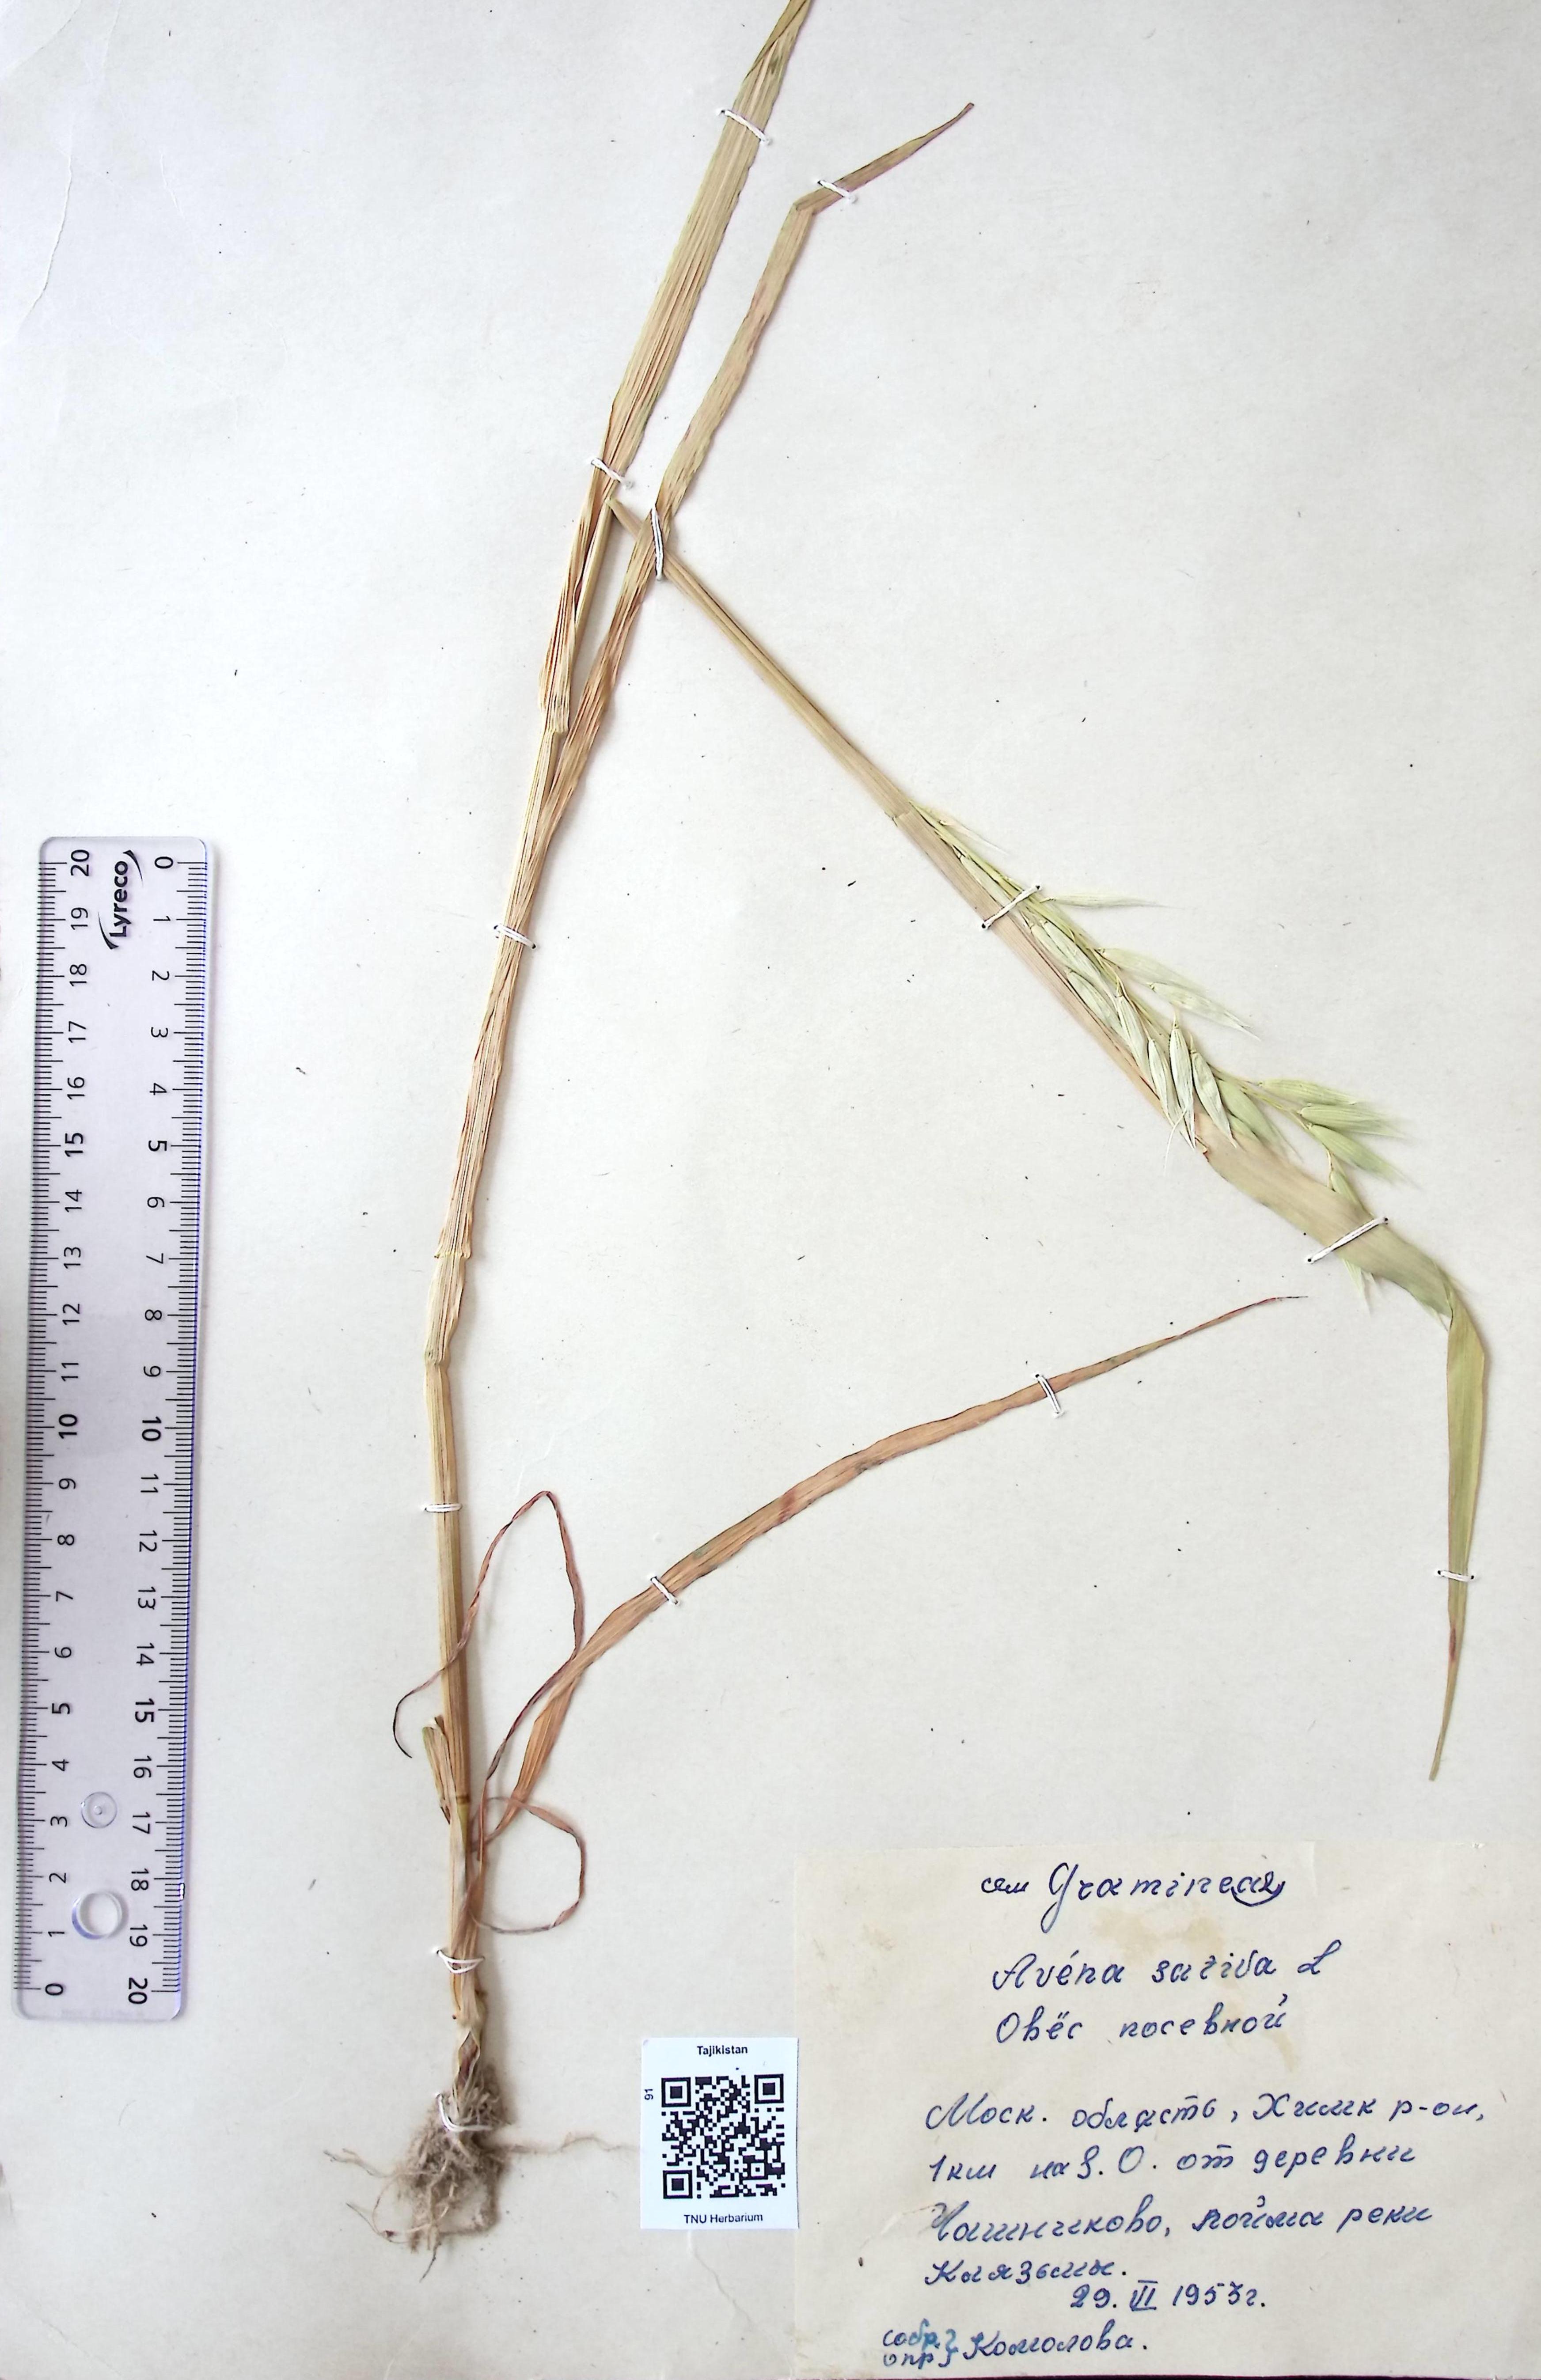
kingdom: Plantae
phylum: Tracheophyta
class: Liliopsida
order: Poales
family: Poaceae
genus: Avena
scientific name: Avena sativa
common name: Oat
